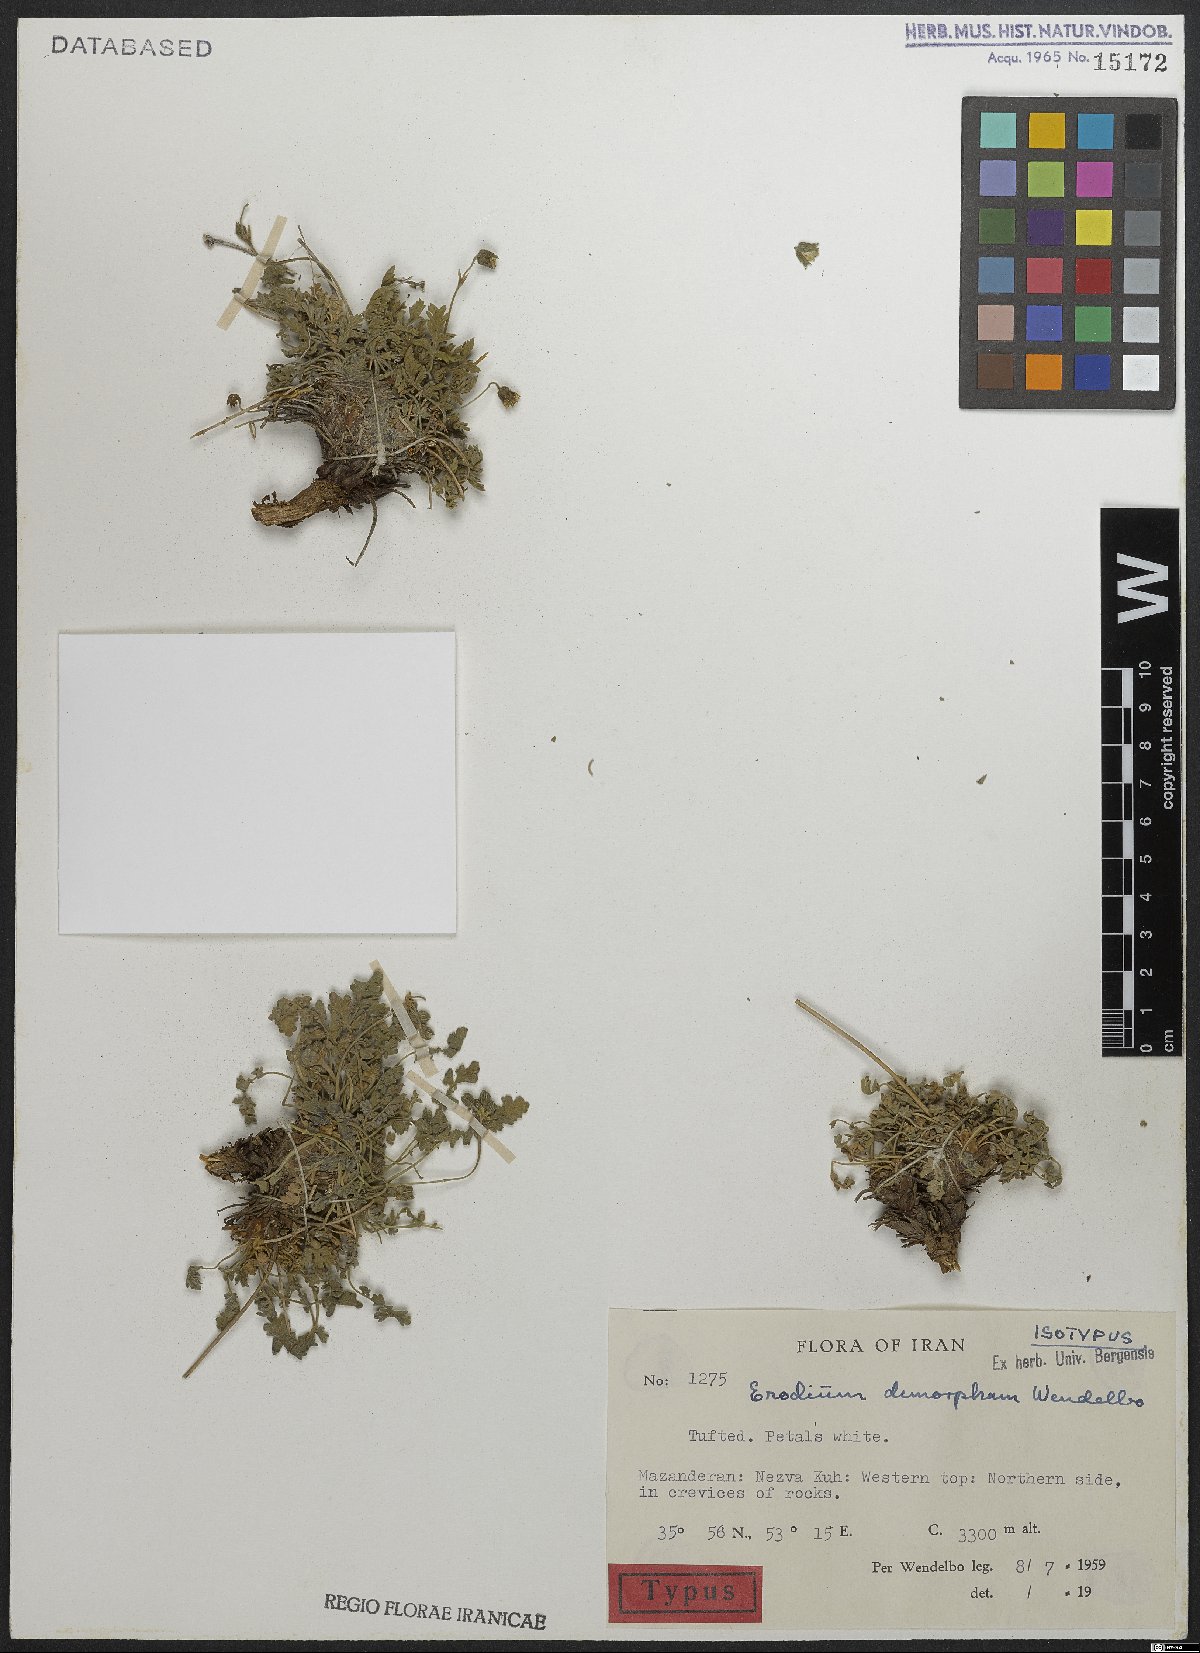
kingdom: Plantae
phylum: Tracheophyta
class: Magnoliopsida
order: Geraniales
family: Geraniaceae
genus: Erodium
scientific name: Erodium dimorphum
